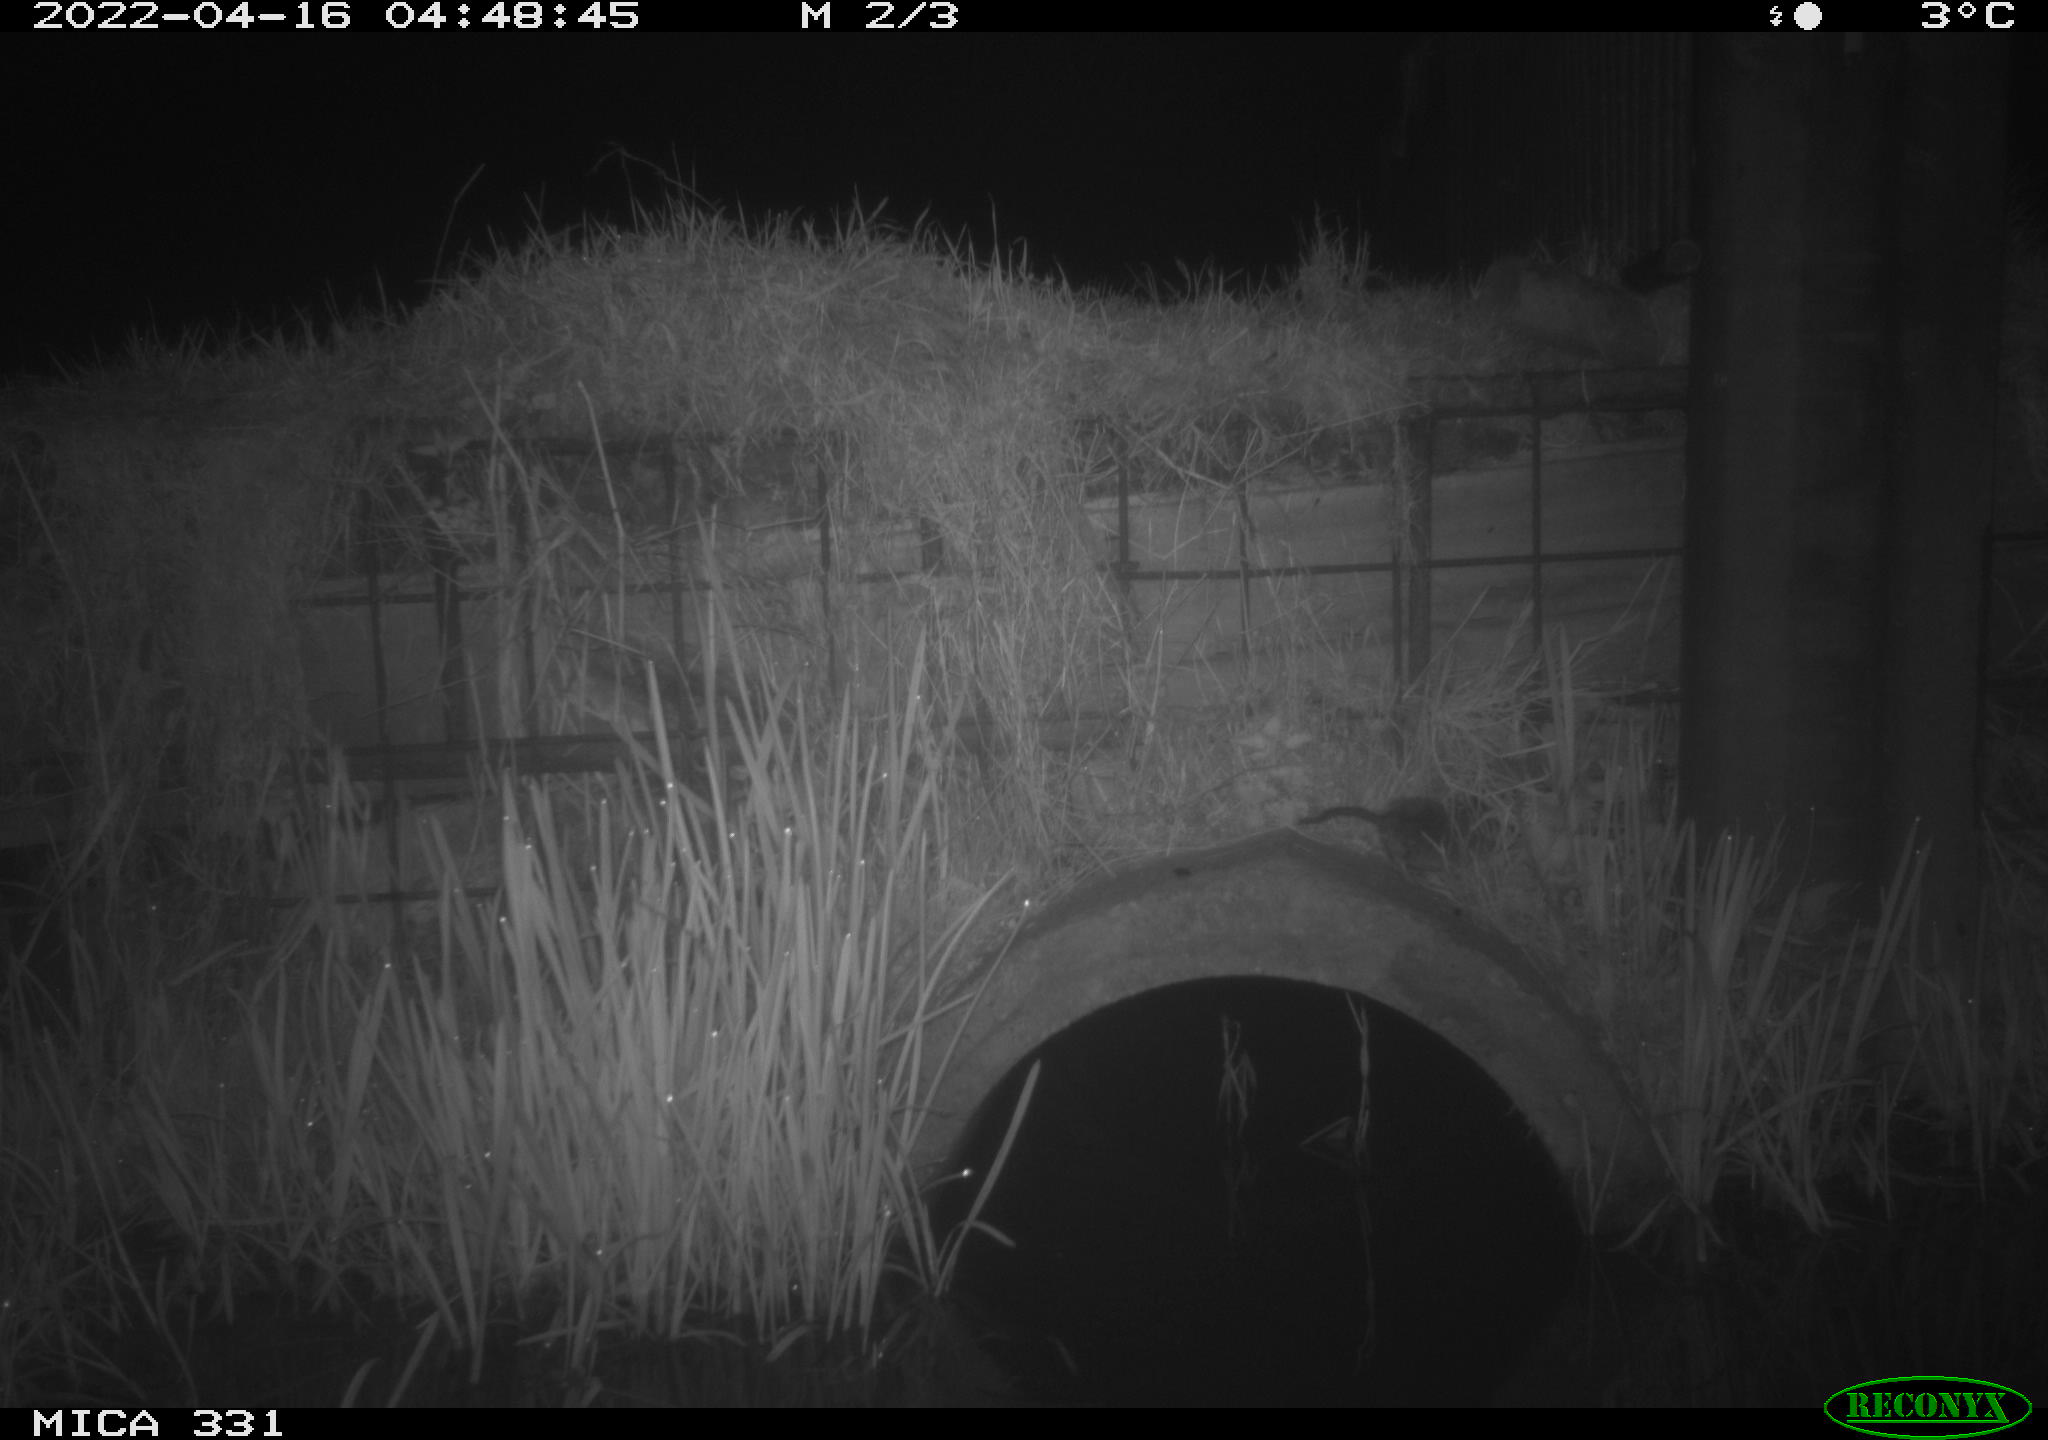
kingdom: Animalia
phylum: Chordata
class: Mammalia
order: Rodentia
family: Muridae
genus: Rattus
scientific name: Rattus norvegicus
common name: Brown rat
